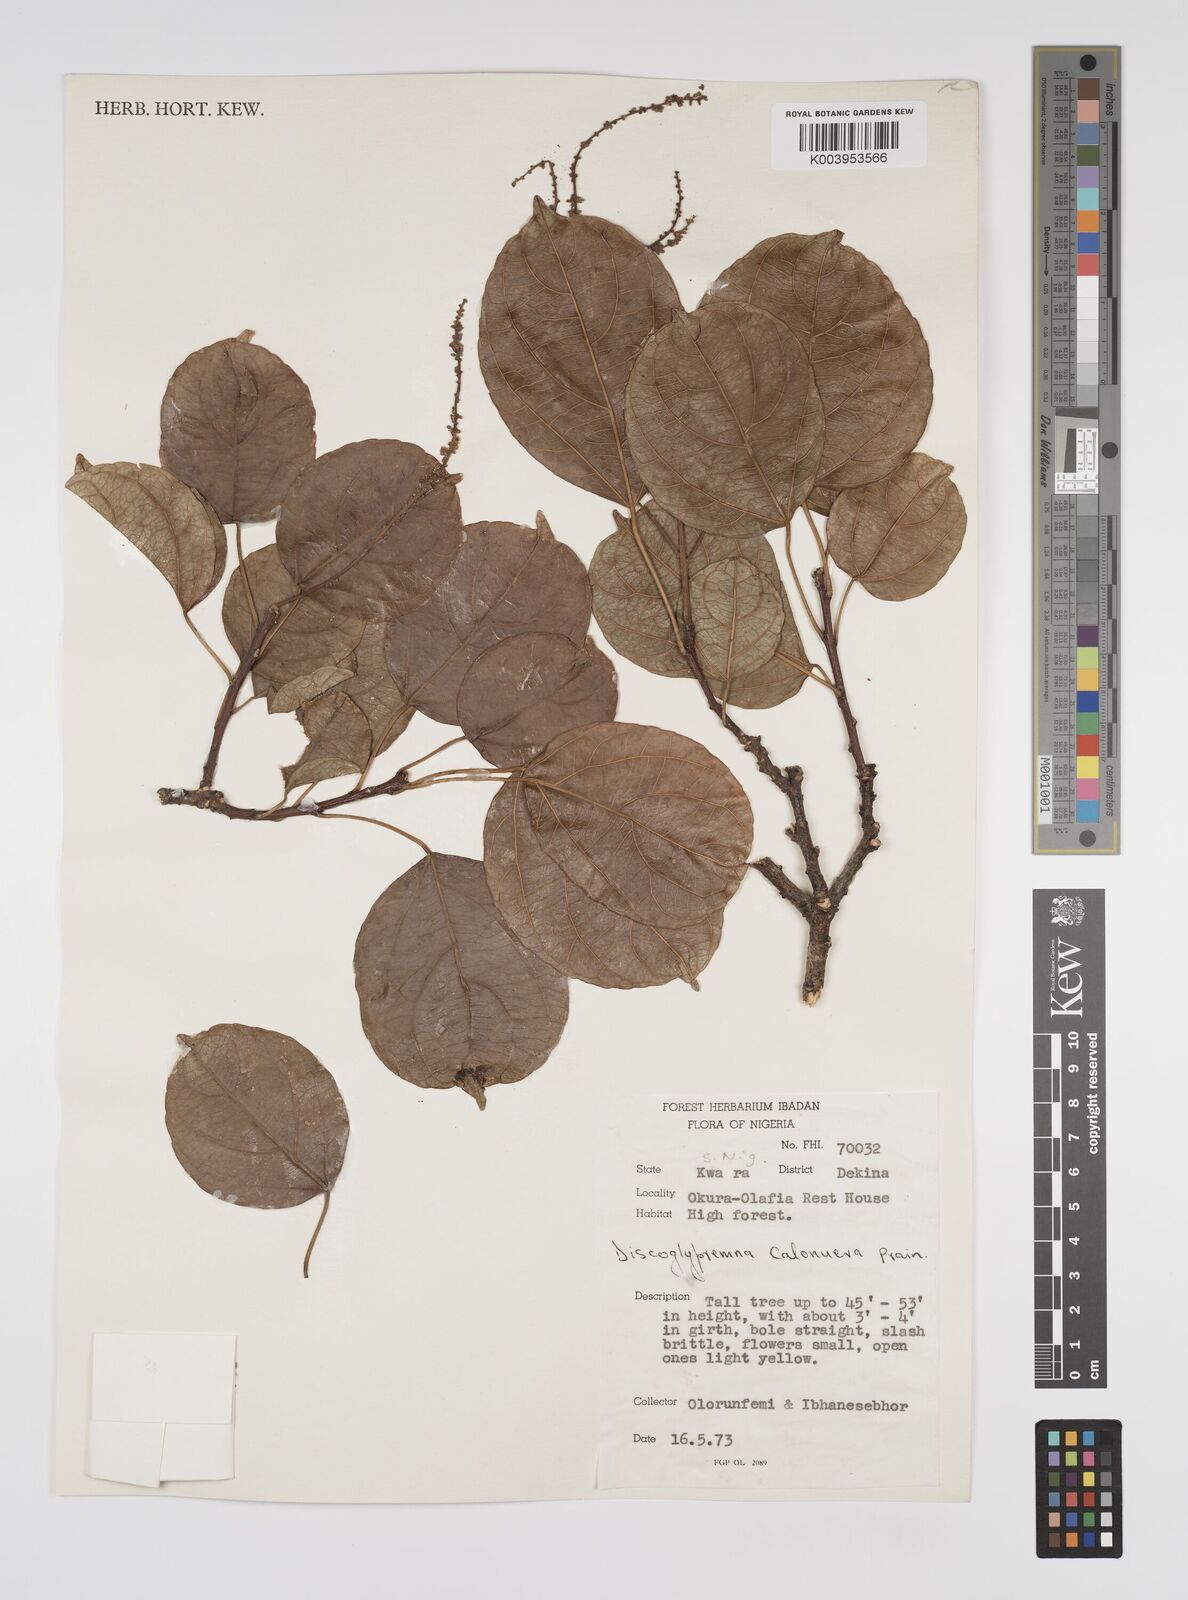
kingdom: Plantae
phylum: Tracheophyta
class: Magnoliopsida
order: Malpighiales
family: Euphorbiaceae
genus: Discoglypremna
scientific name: Discoglypremna caloneura
